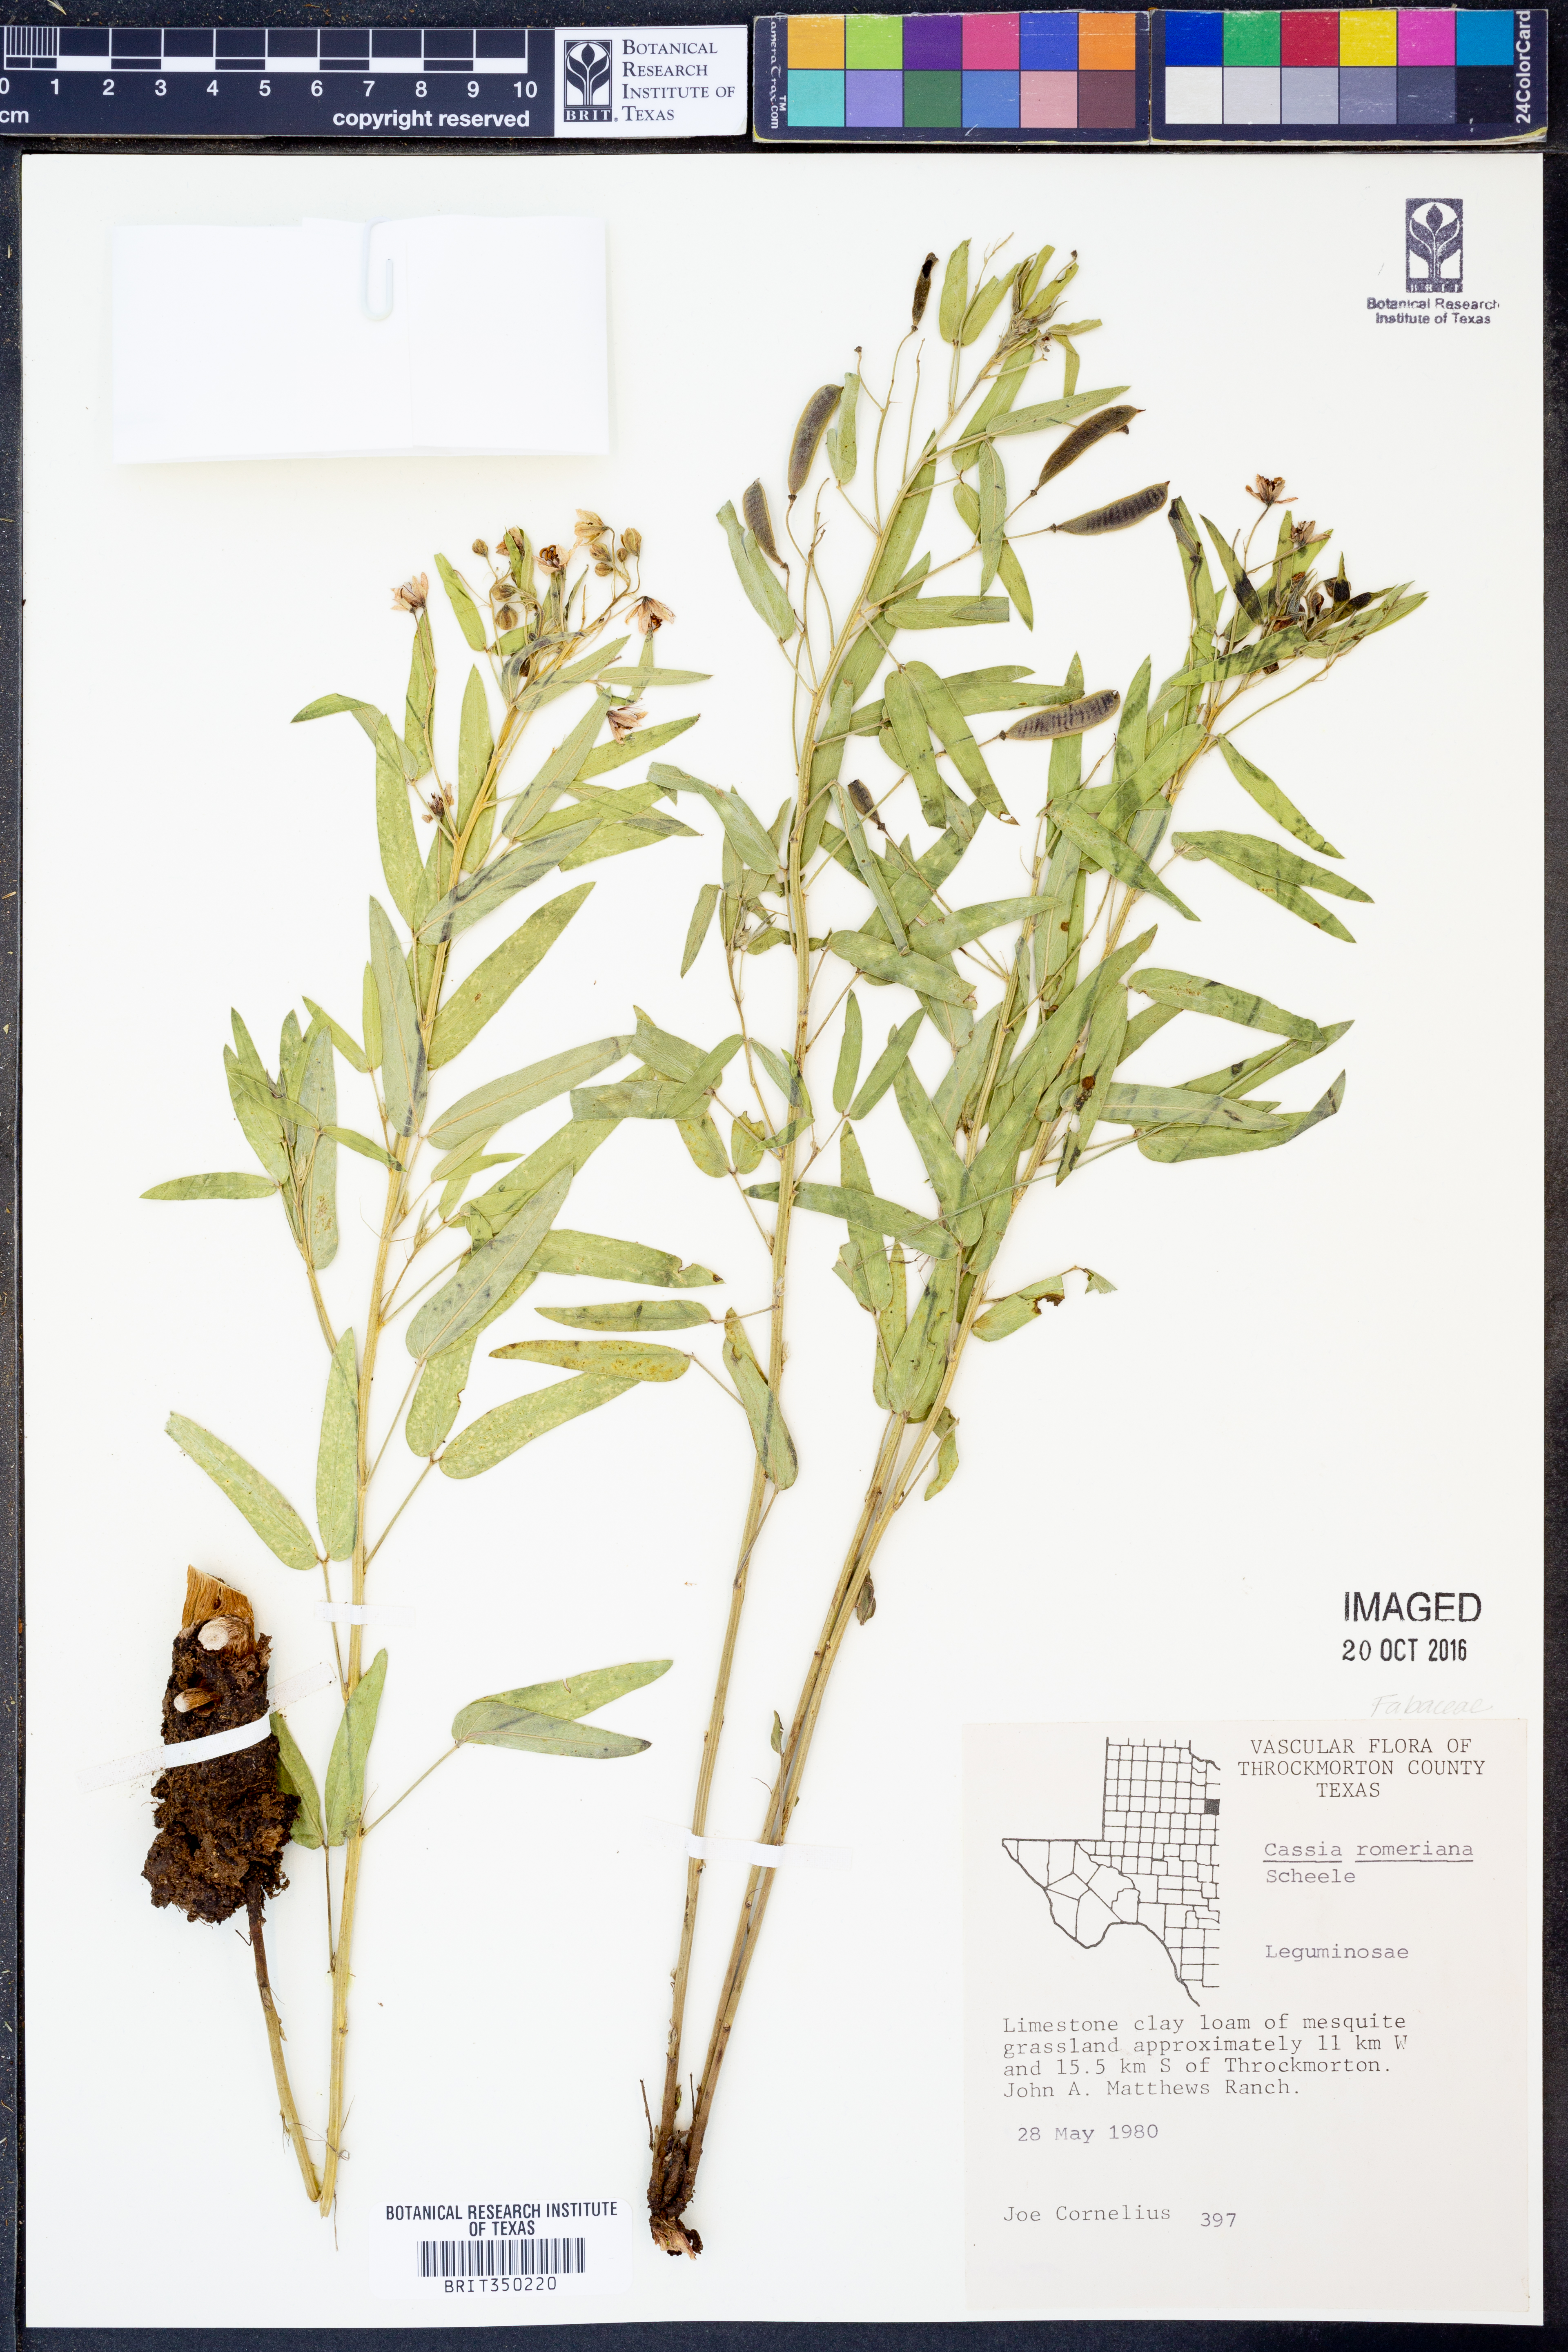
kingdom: Plantae
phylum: Tracheophyta
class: Magnoliopsida
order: Fabales
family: Fabaceae
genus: Senna
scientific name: Senna roemeriana
